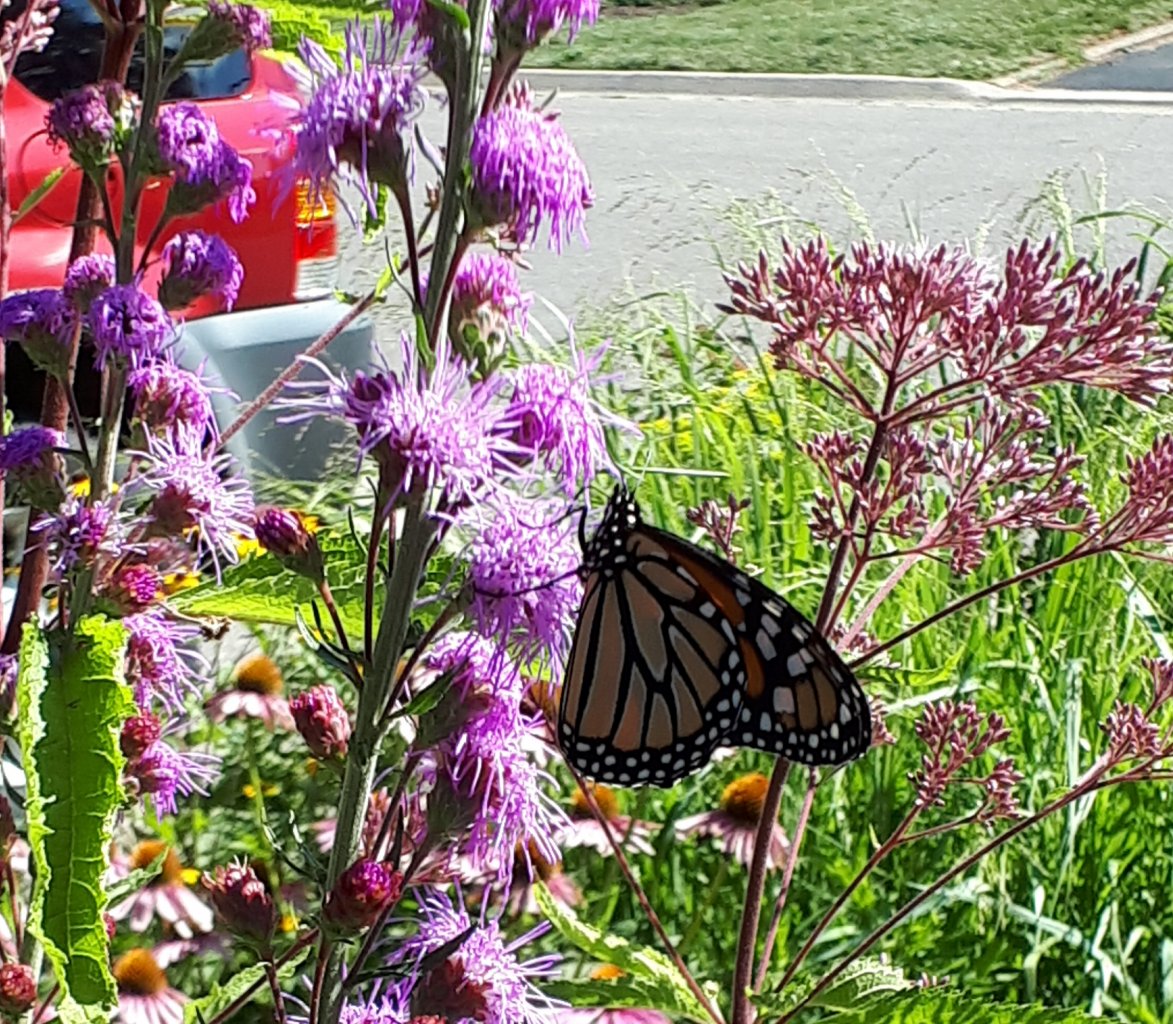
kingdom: Animalia
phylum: Arthropoda
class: Insecta
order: Lepidoptera
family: Nymphalidae
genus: Danaus
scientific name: Danaus plexippus
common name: Monarch
